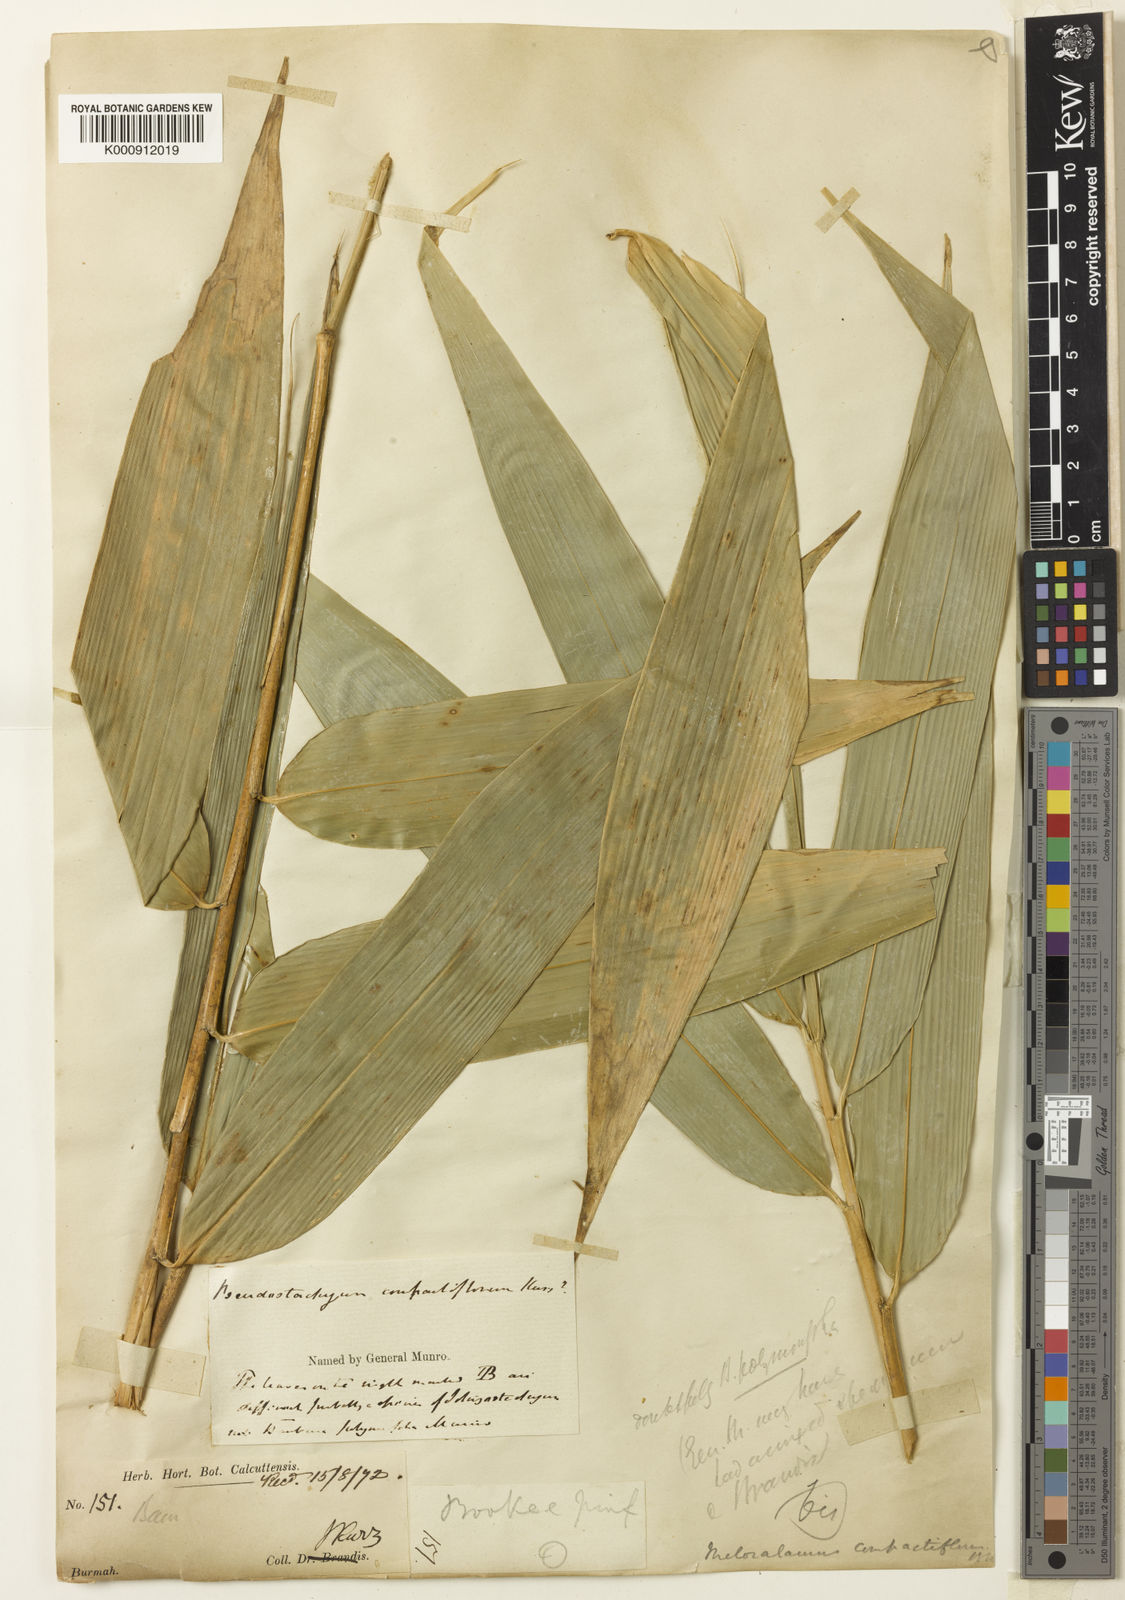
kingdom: Plantae
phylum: Tracheophyta
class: Liliopsida
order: Poales
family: Poaceae
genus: Melocalamus
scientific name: Melocalamus compactiflorus
